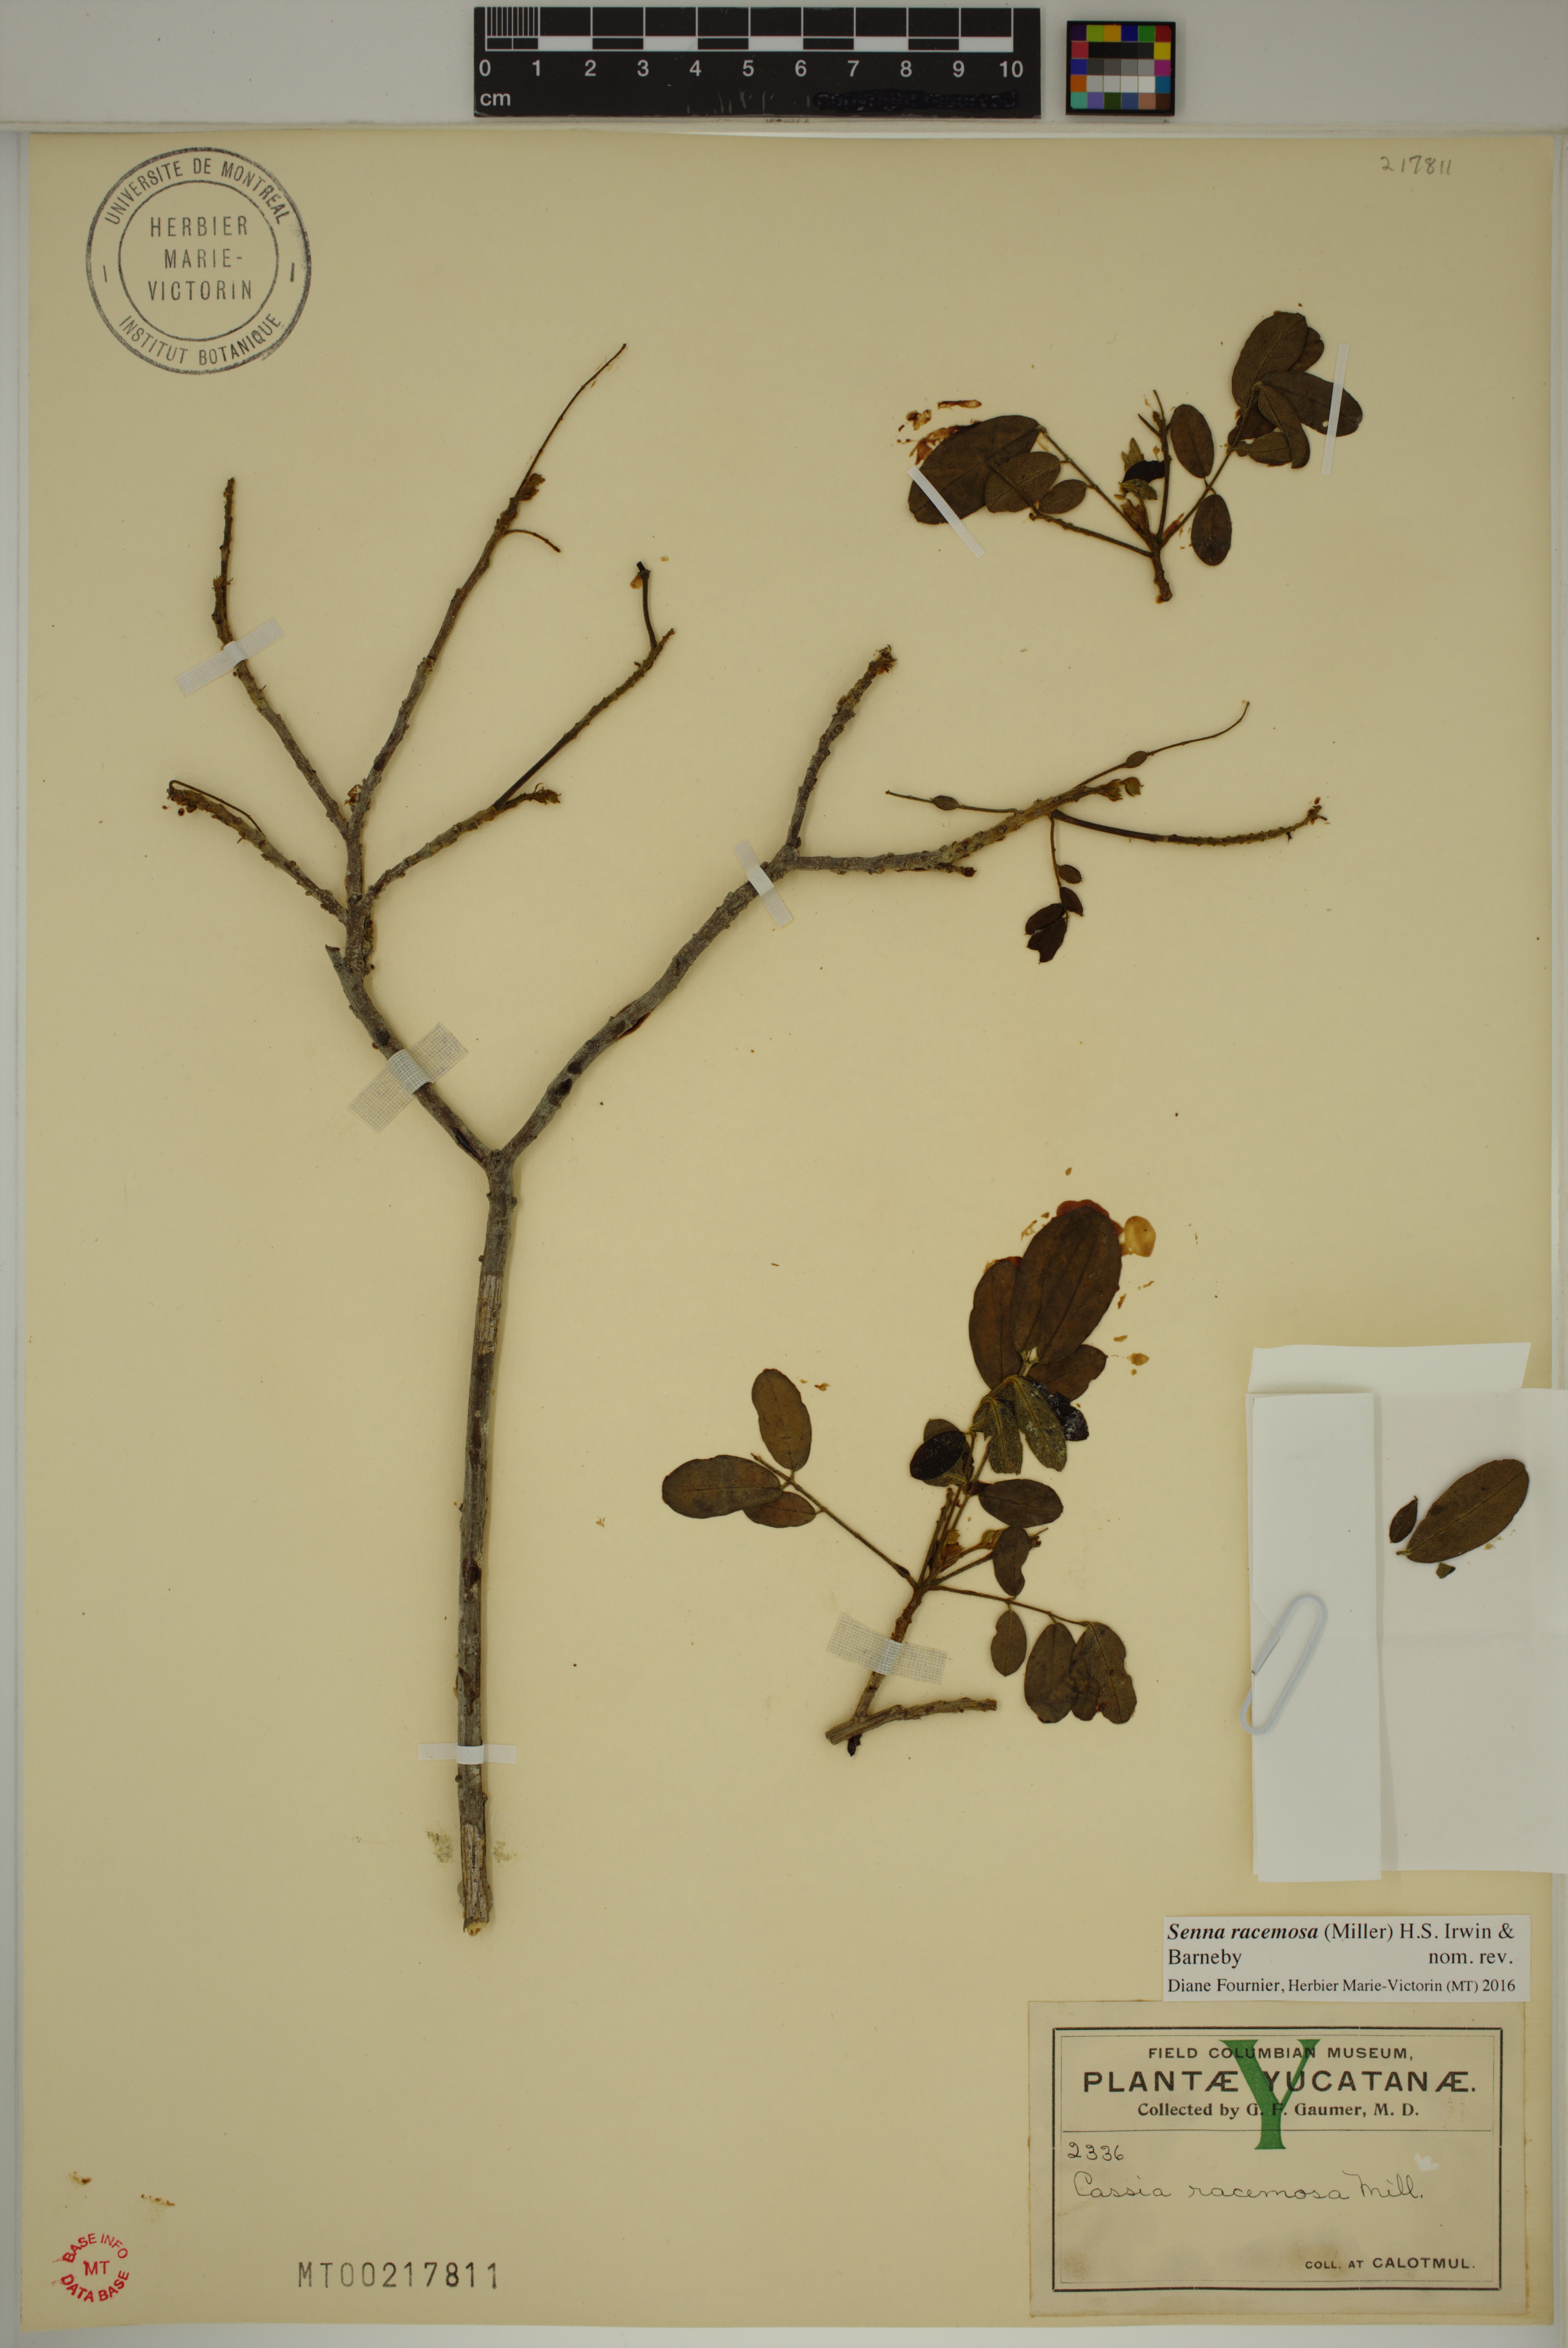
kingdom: Plantae
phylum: Tracheophyta
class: Magnoliopsida
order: Fabales
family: Fabaceae
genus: Senna
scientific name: Senna racemosa
